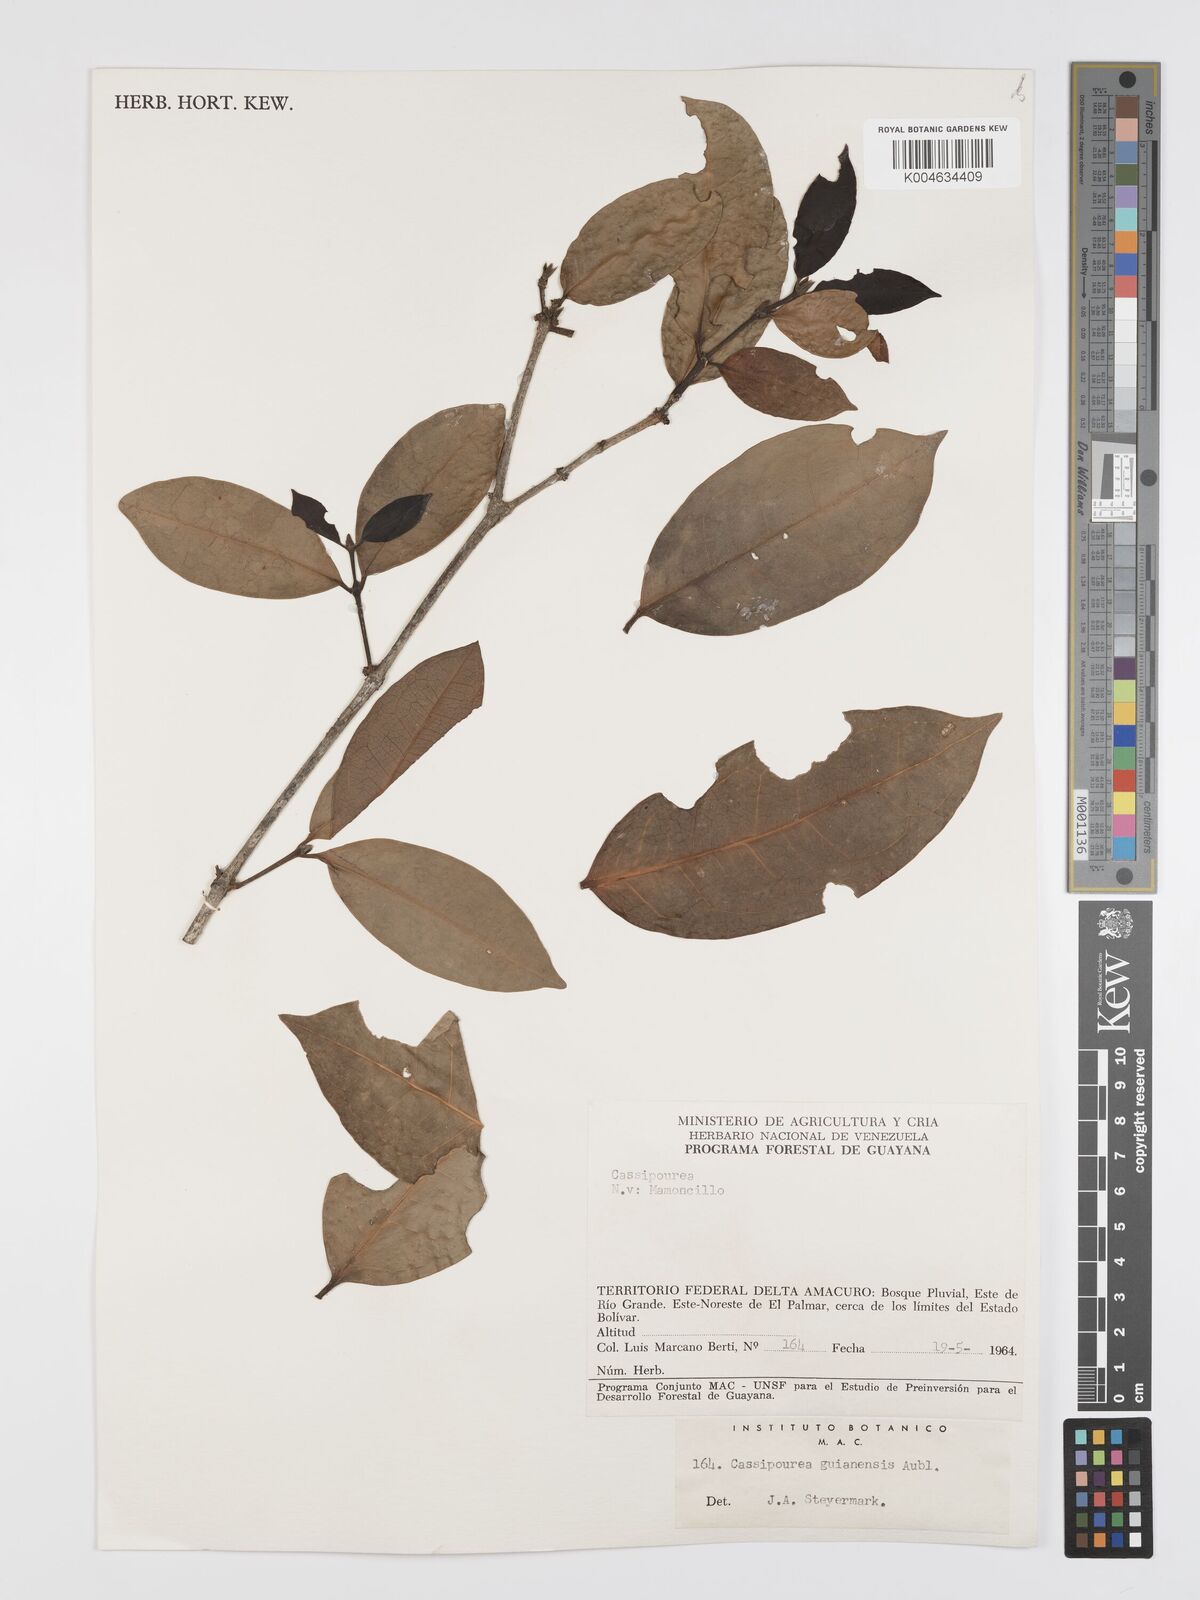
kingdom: Plantae
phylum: Tracheophyta
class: Magnoliopsida
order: Malpighiales
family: Rhizophoraceae
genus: Cassipourea
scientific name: Cassipourea guianensis
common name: Bastard waterwood
